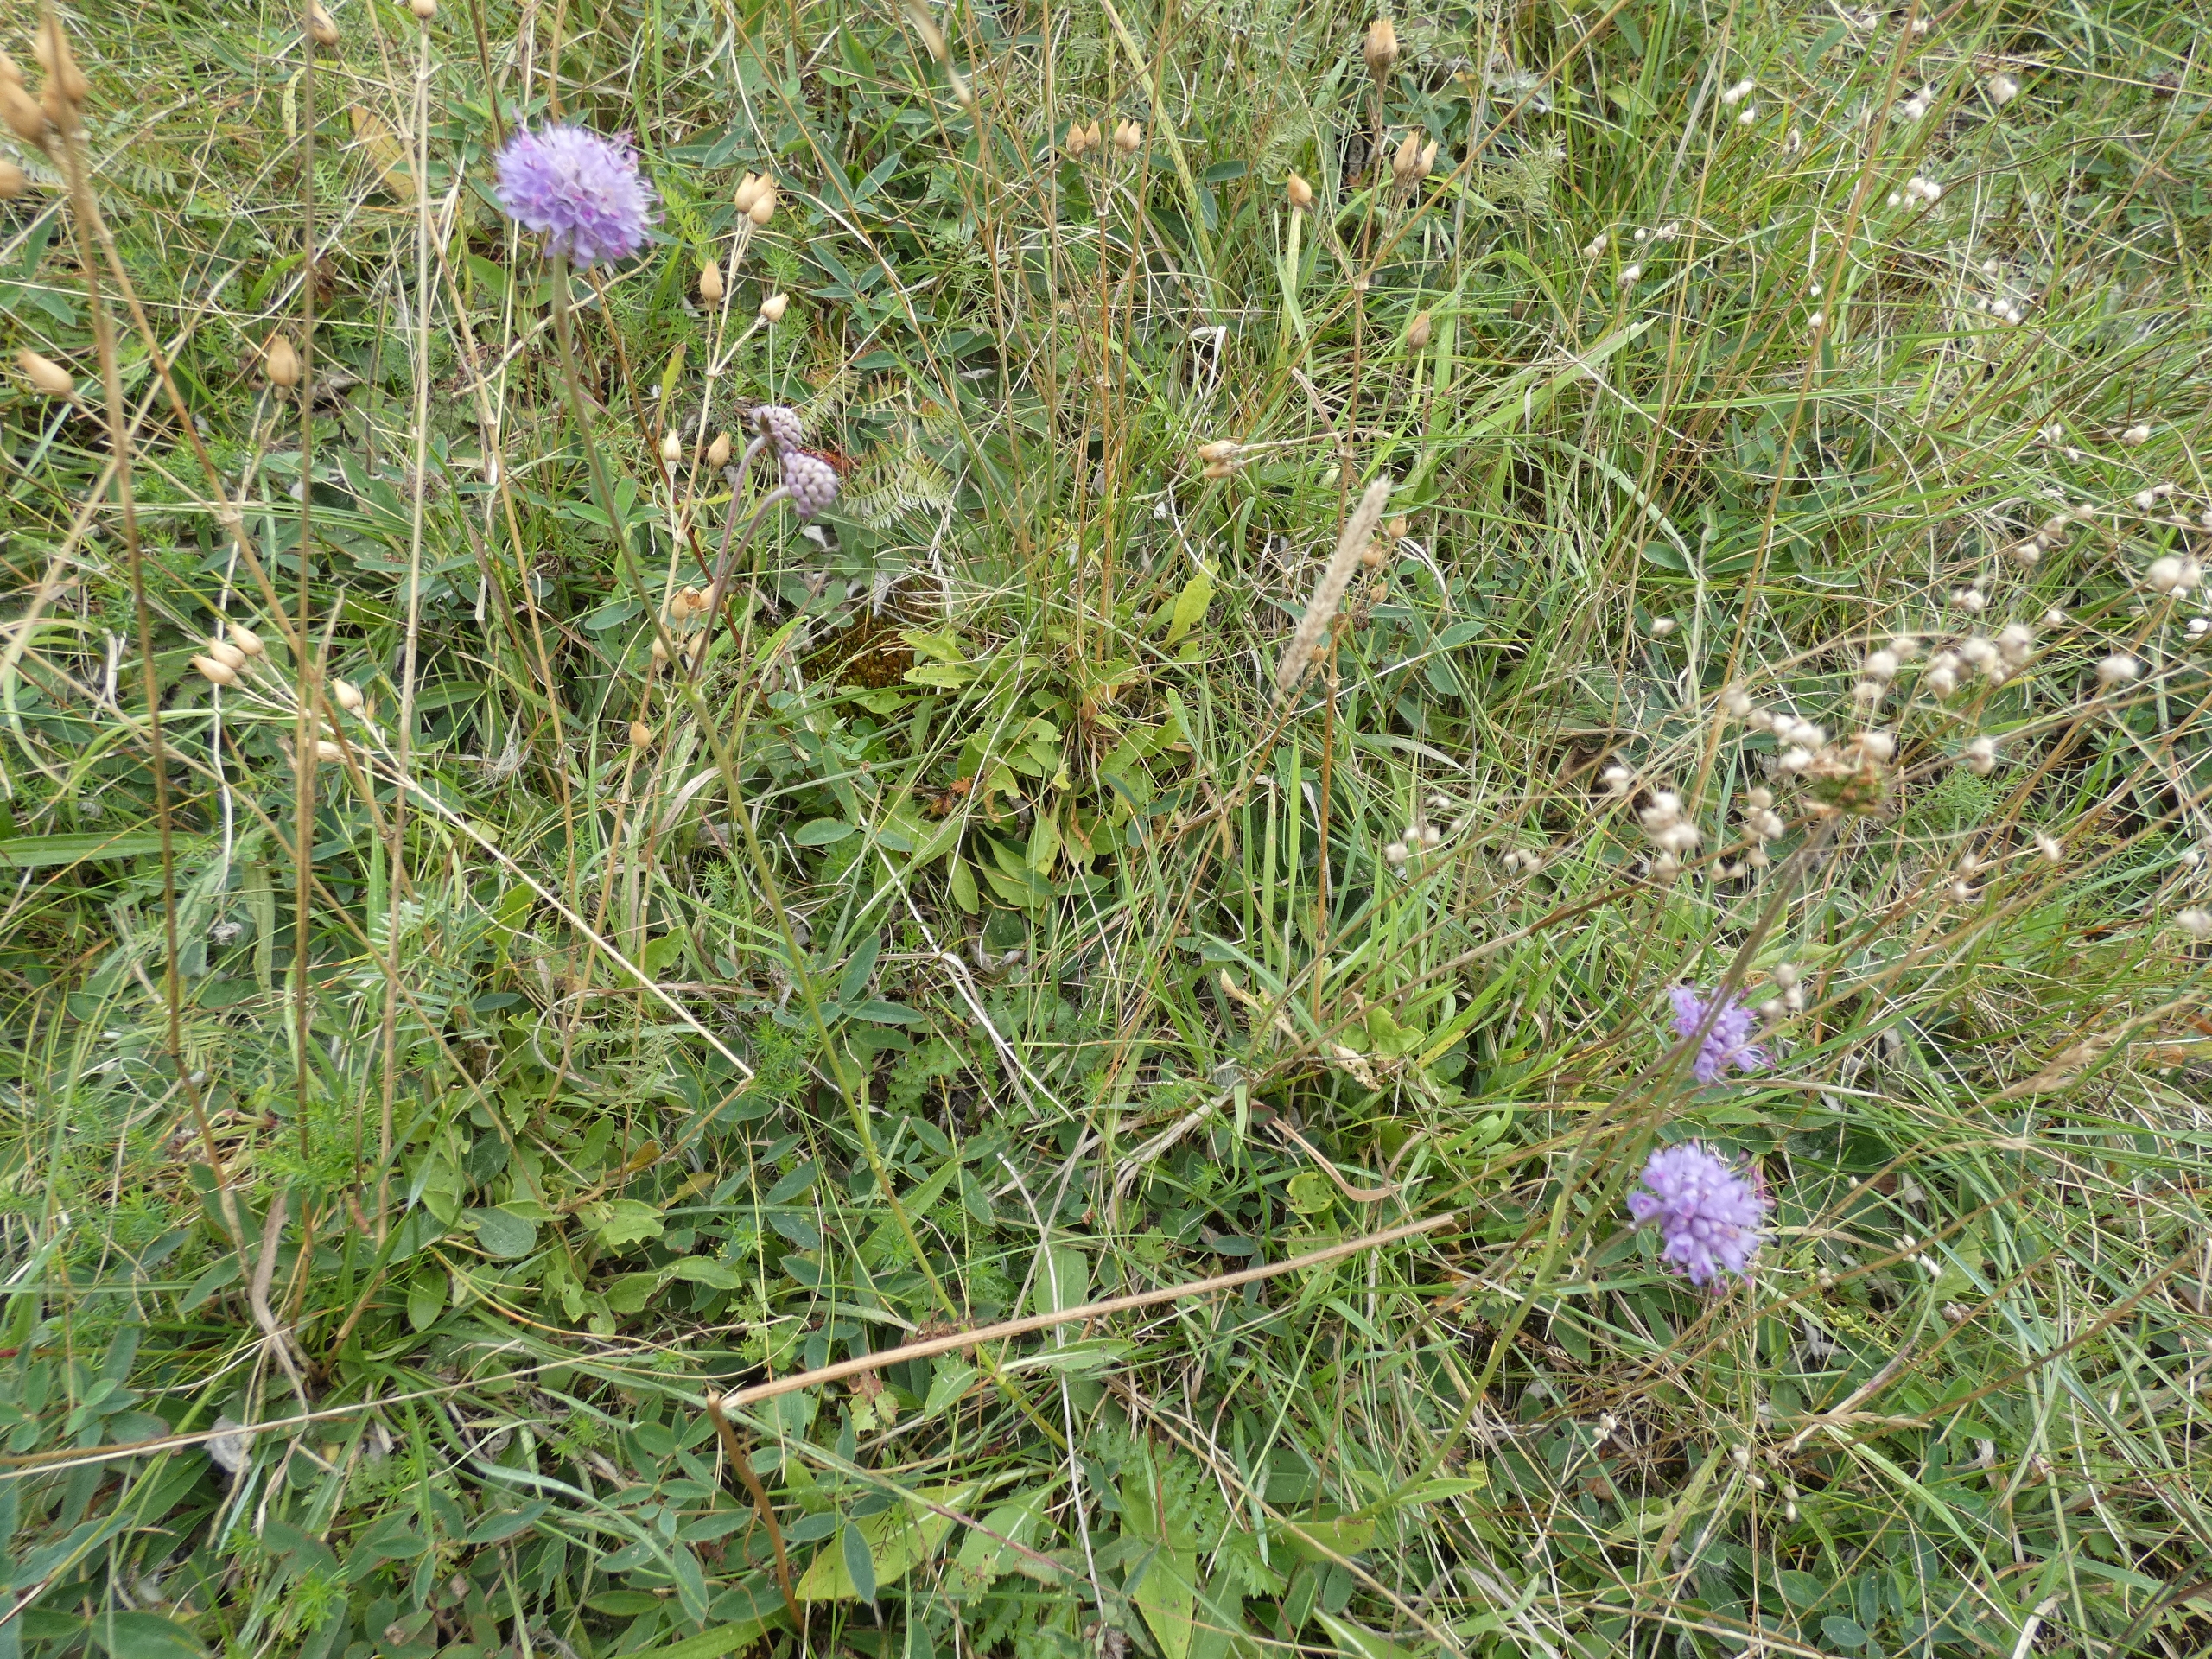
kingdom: Plantae
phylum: Tracheophyta
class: Magnoliopsida
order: Dipsacales
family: Caprifoliaceae
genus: Succisa
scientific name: Succisa pratensis
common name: Djævelsbid
